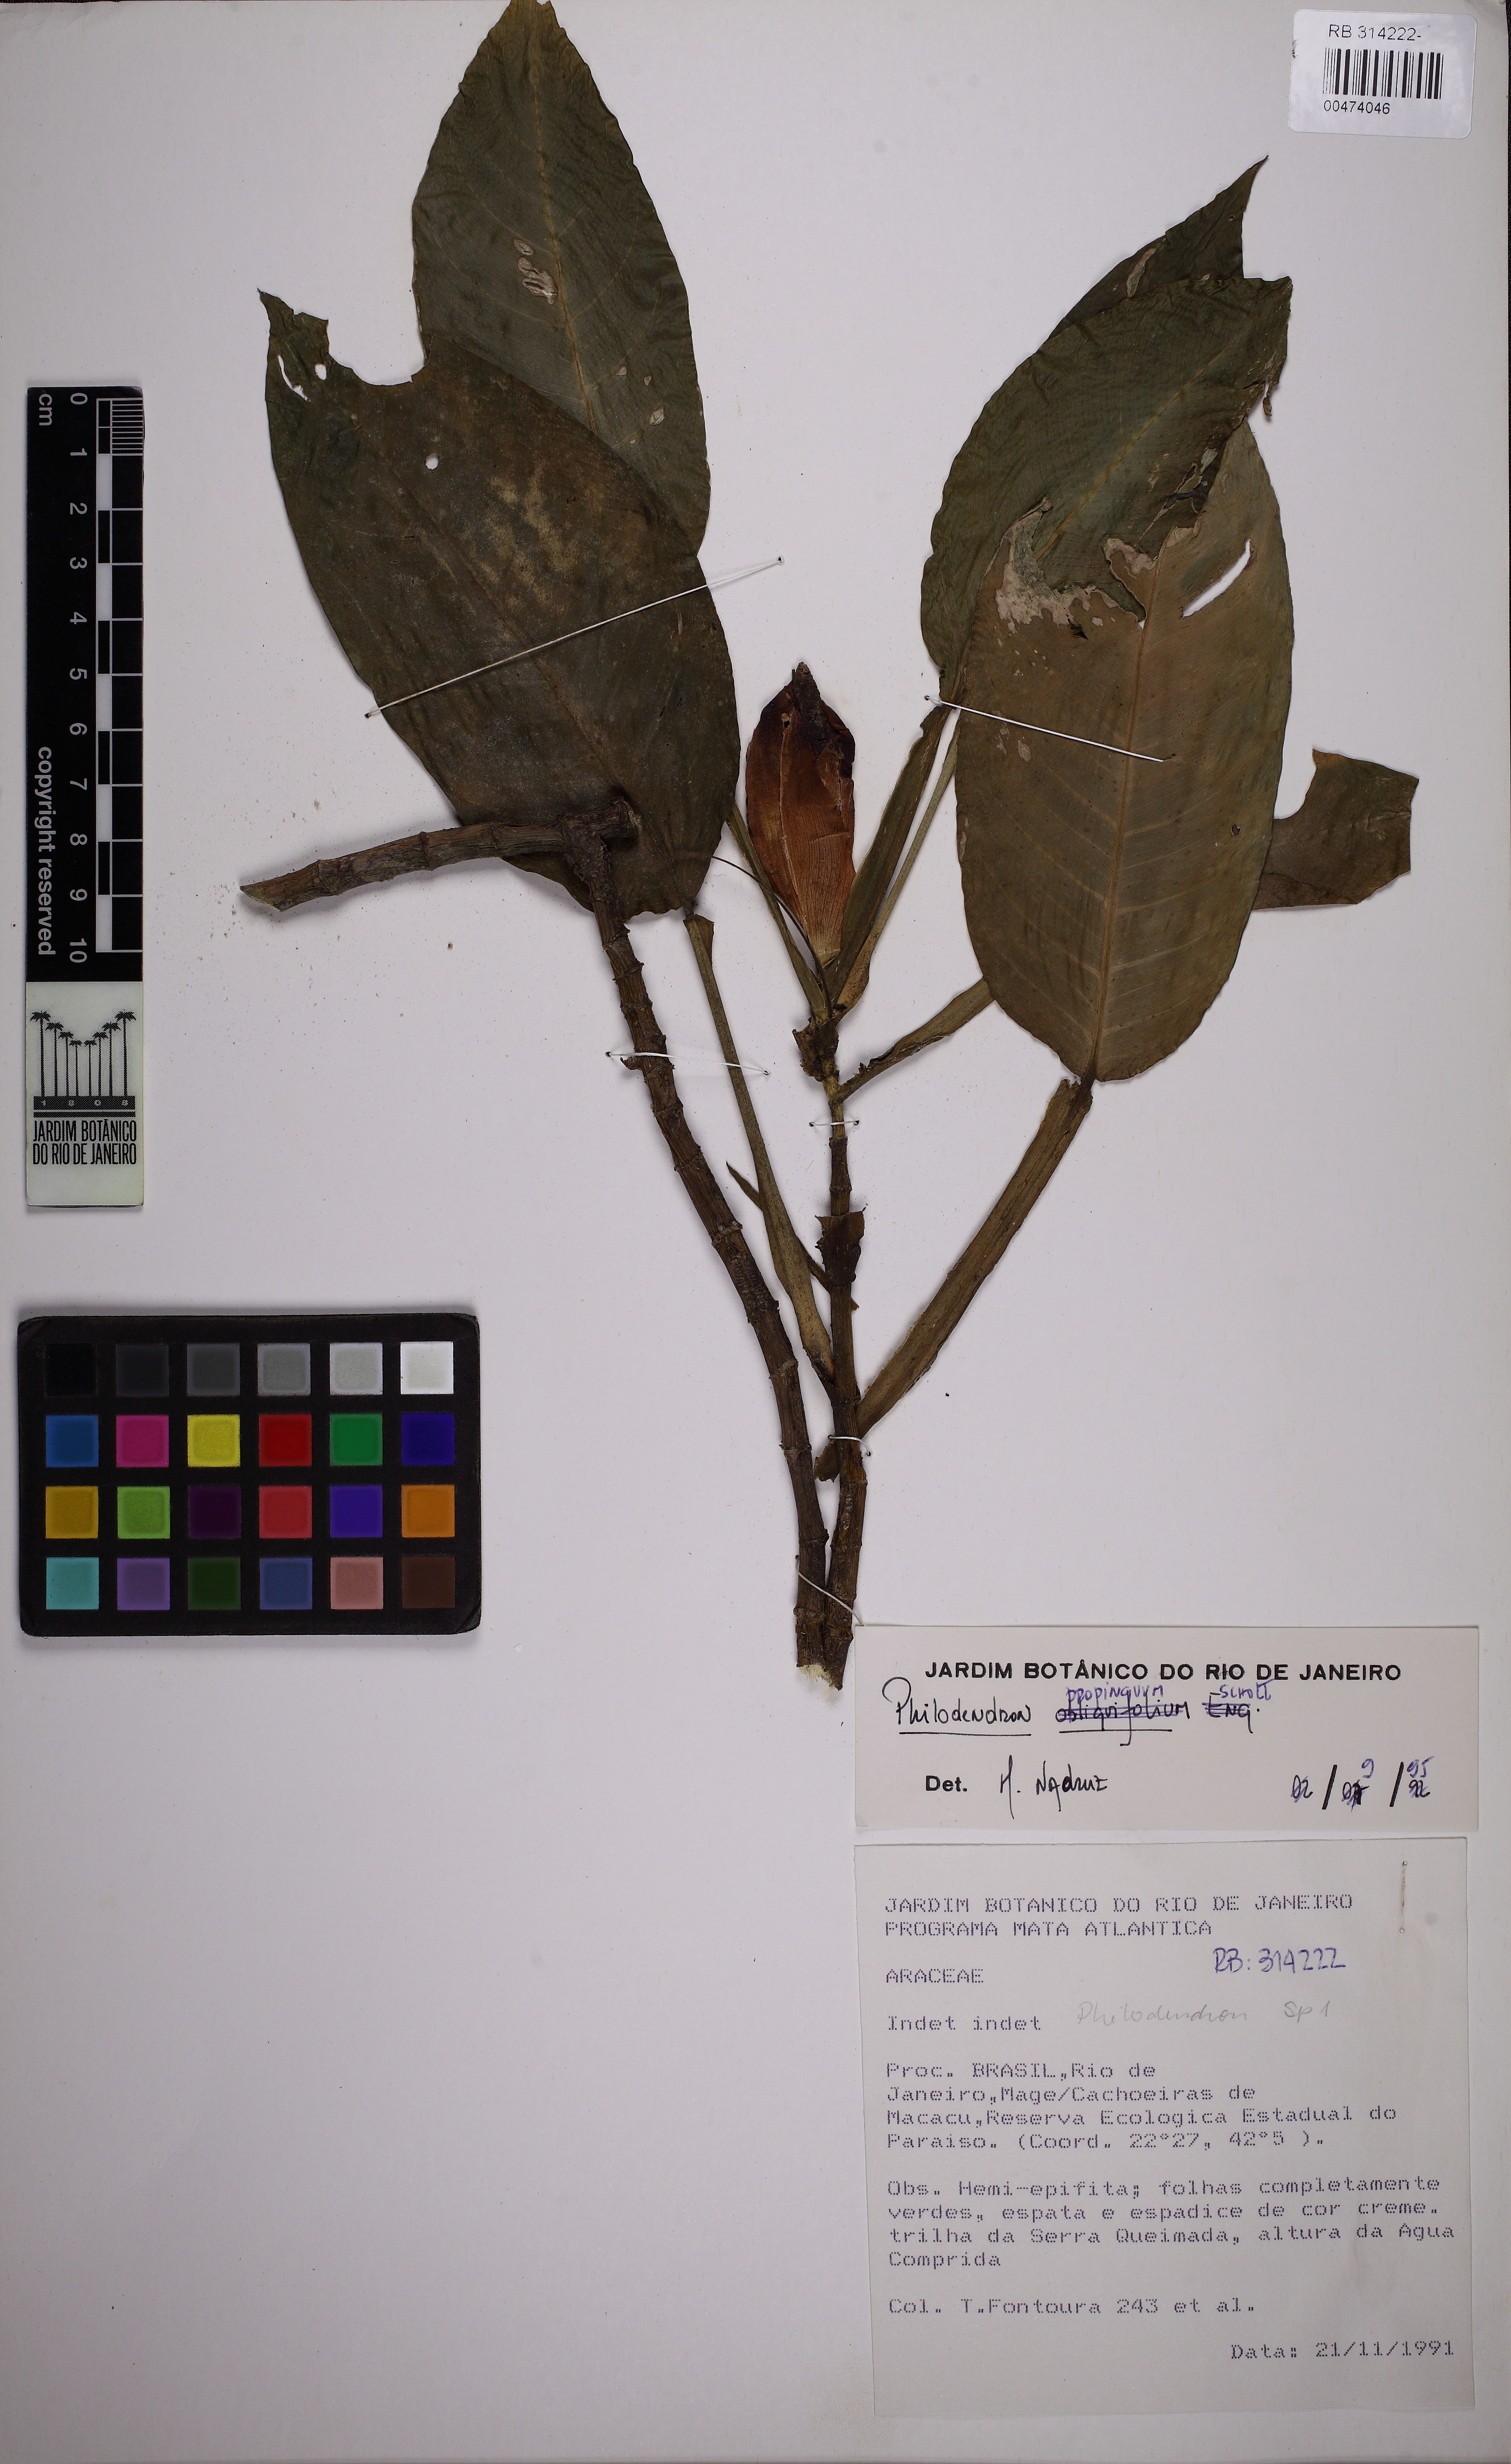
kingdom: Plantae
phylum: Tracheophyta
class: Liliopsida
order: Alismatales
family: Araceae
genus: Philodendron
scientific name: Philodendron propinquum
